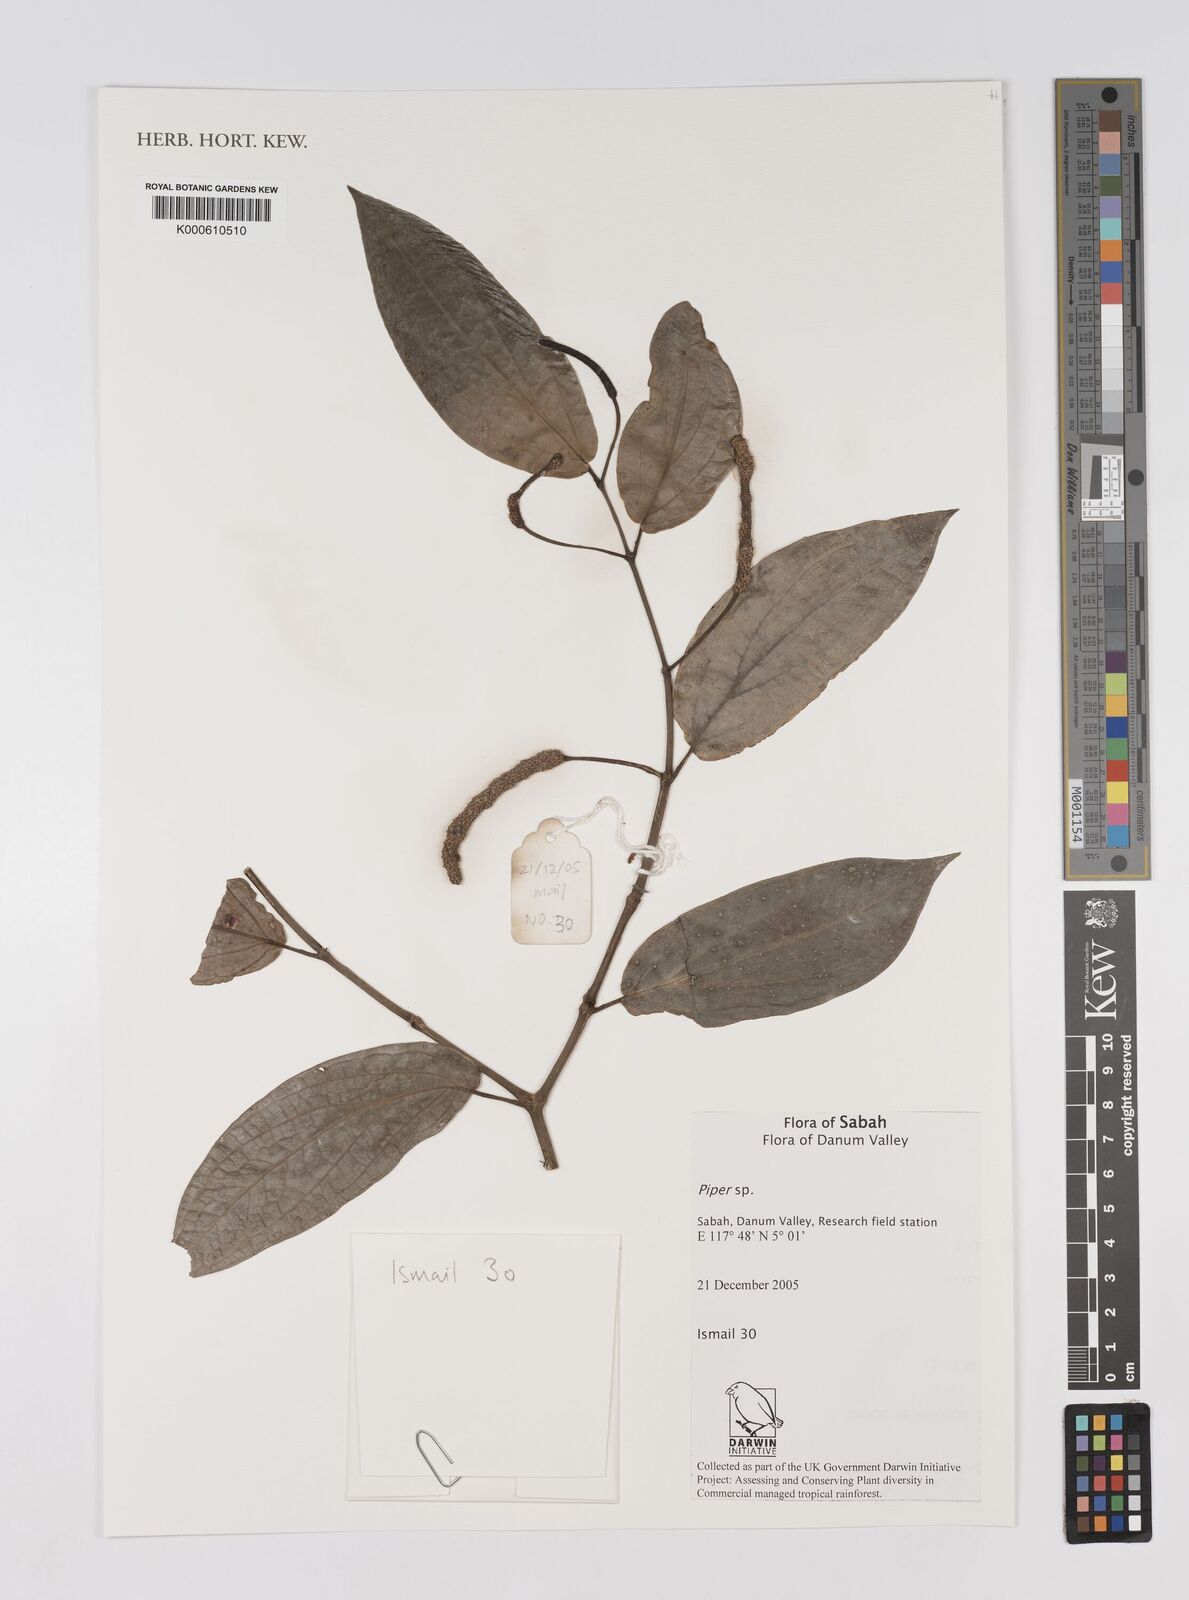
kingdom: Plantae
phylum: Tracheophyta
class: Magnoliopsida
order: Piperales
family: Piperaceae
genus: Piper
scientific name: Piper
